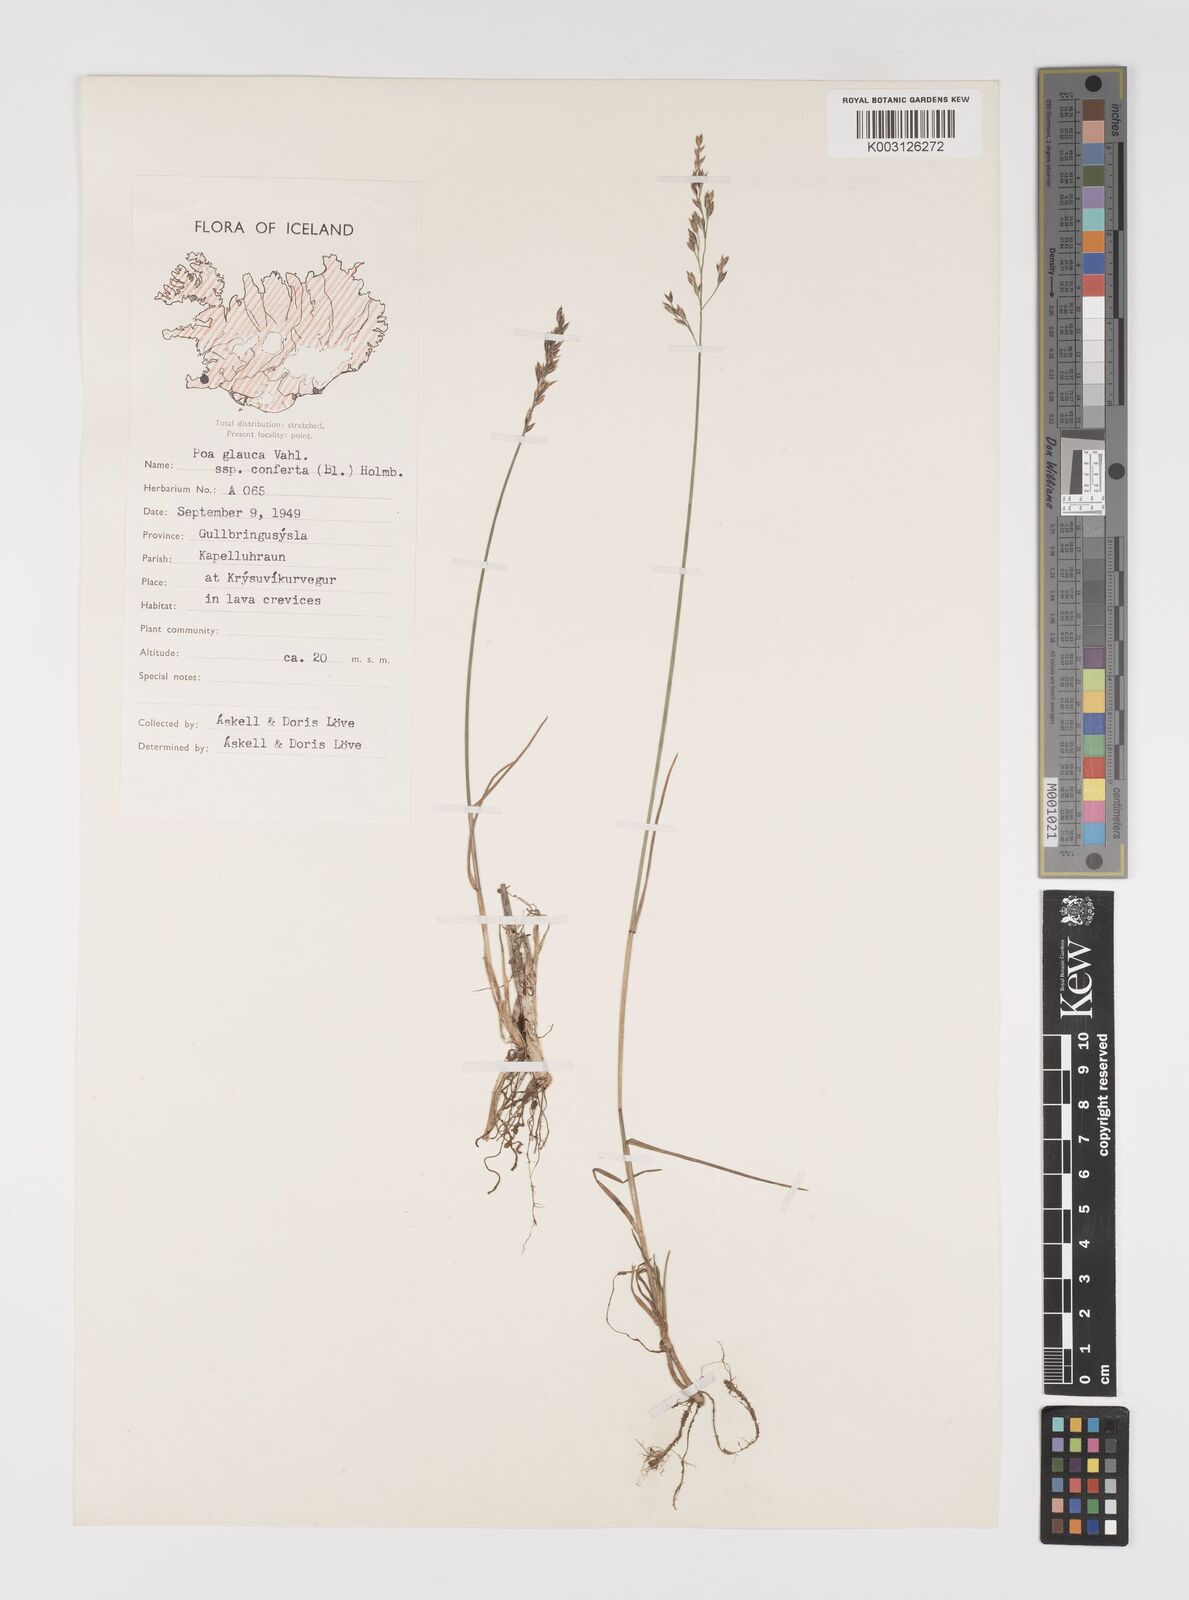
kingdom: Plantae
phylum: Tracheophyta
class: Liliopsida
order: Poales
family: Poaceae
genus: Poa
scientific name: Poa glauca
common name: Glaucous bluegrass
